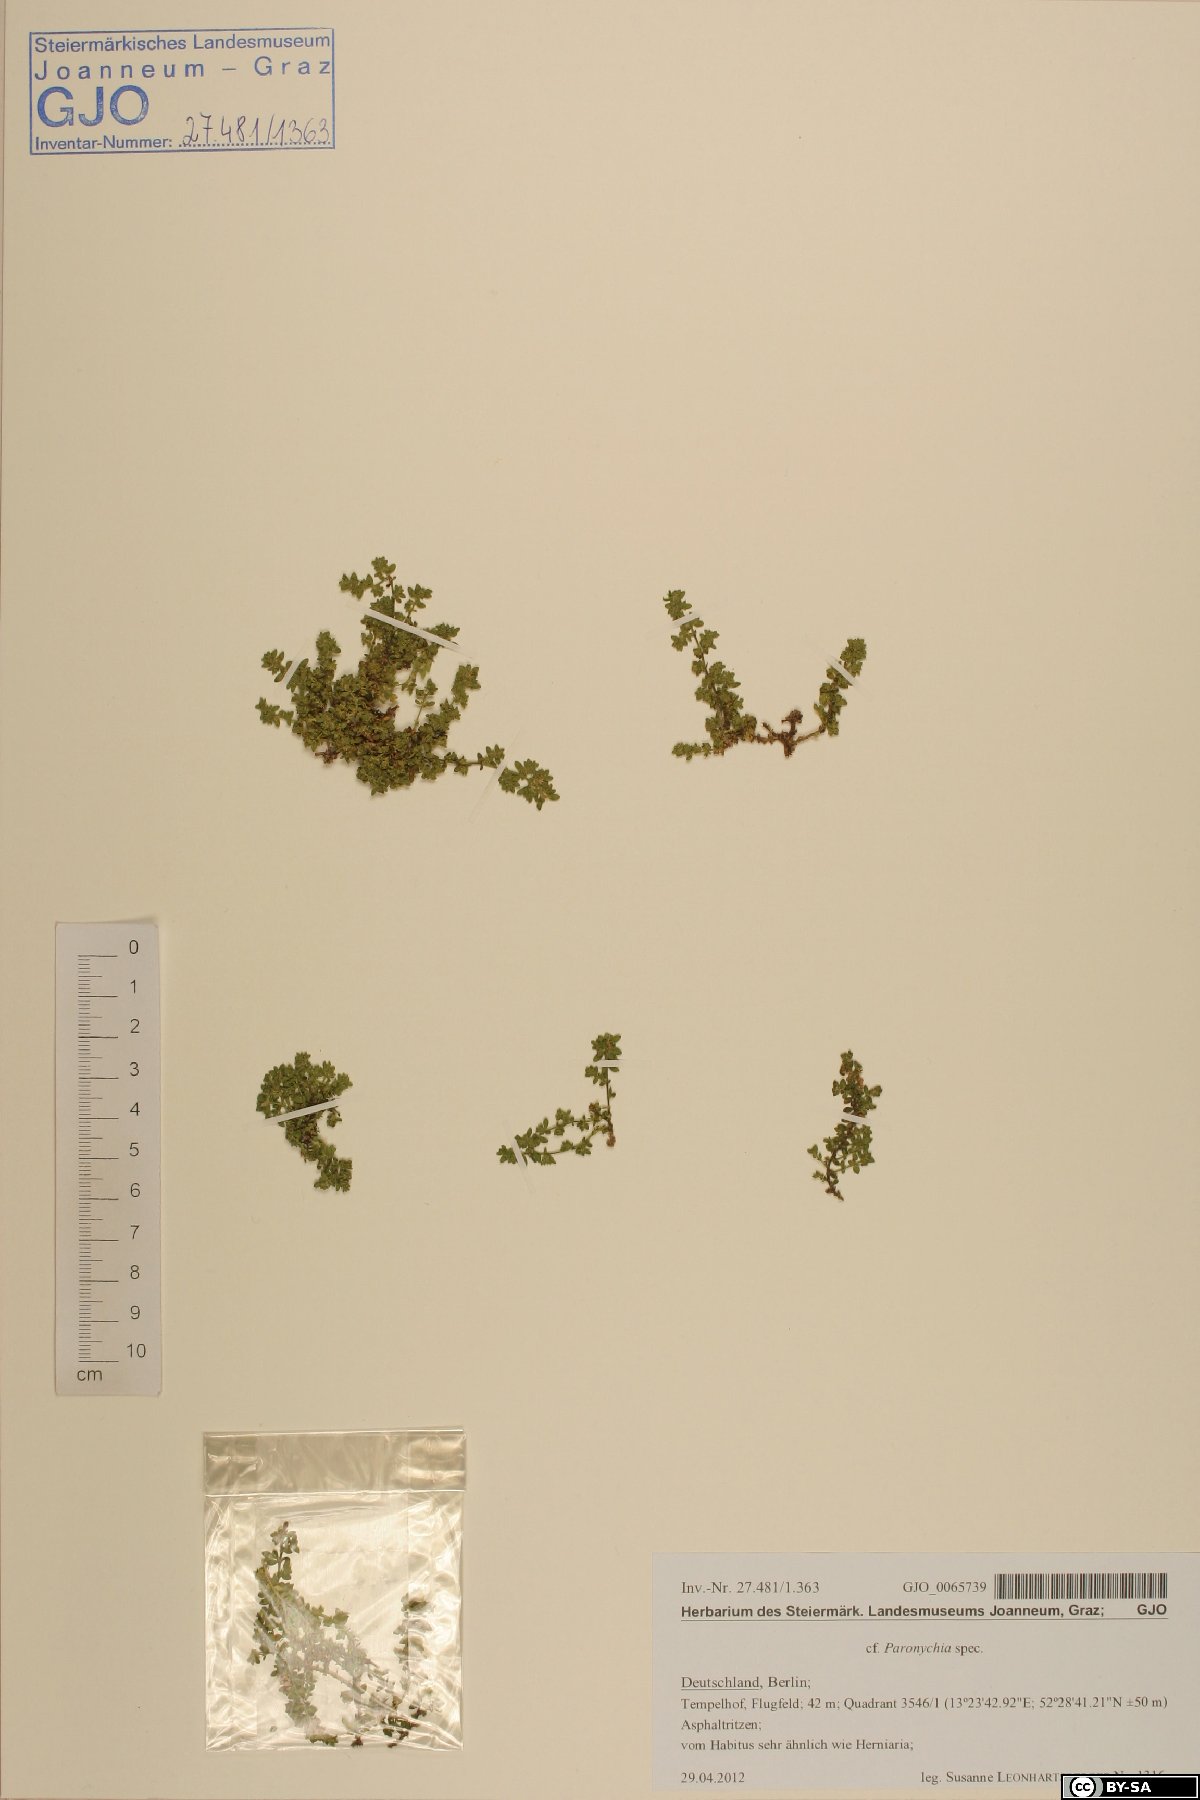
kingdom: Plantae
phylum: Tracheophyta
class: Magnoliopsida
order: Caryophyllales
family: Caryophyllaceae
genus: Paronychia
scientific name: Paronychia
